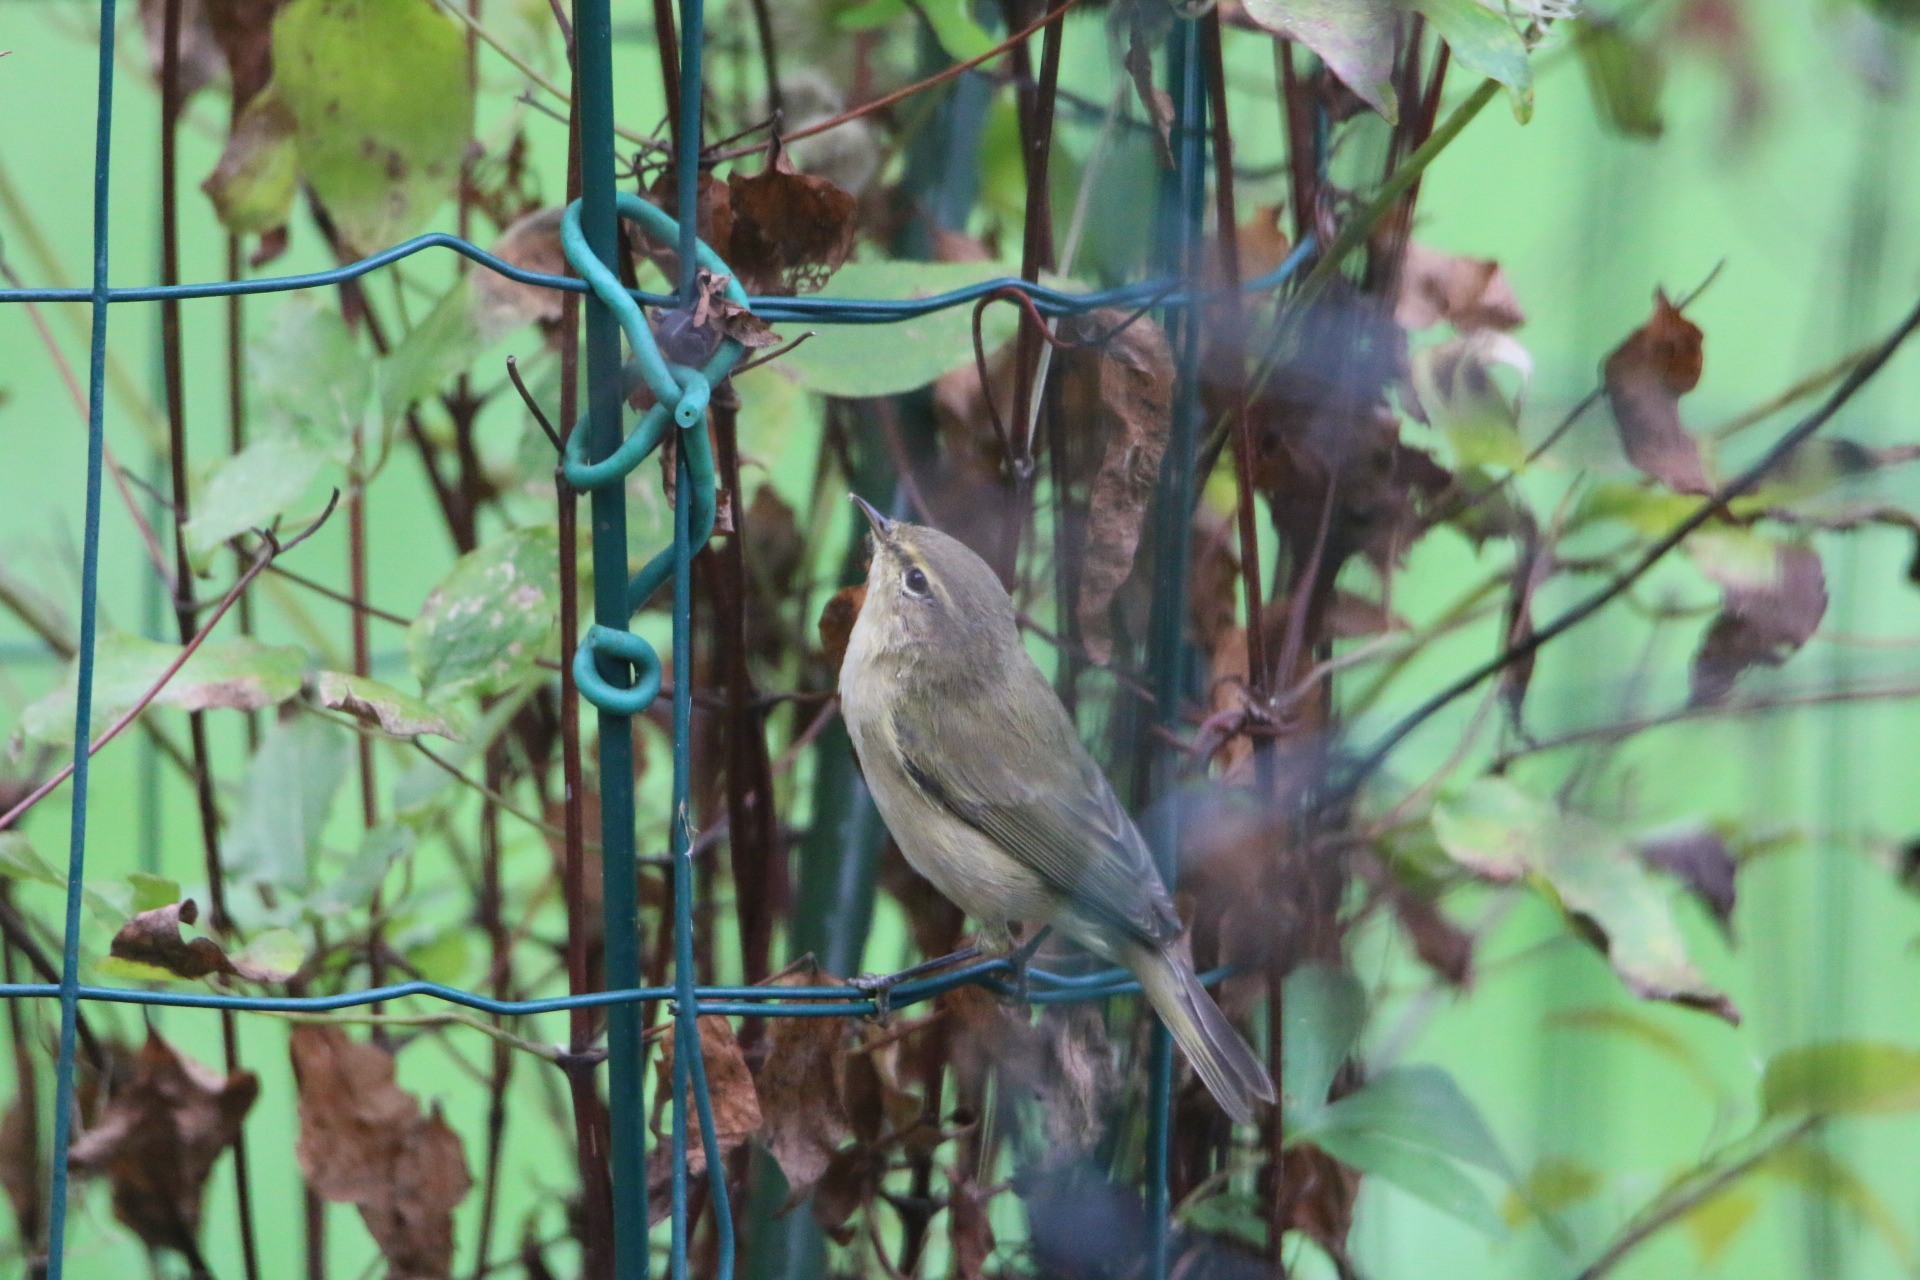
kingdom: Animalia
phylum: Chordata
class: Aves
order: Passeriformes
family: Phylloscopidae
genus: Phylloscopus
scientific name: Phylloscopus collybita
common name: Gransanger
